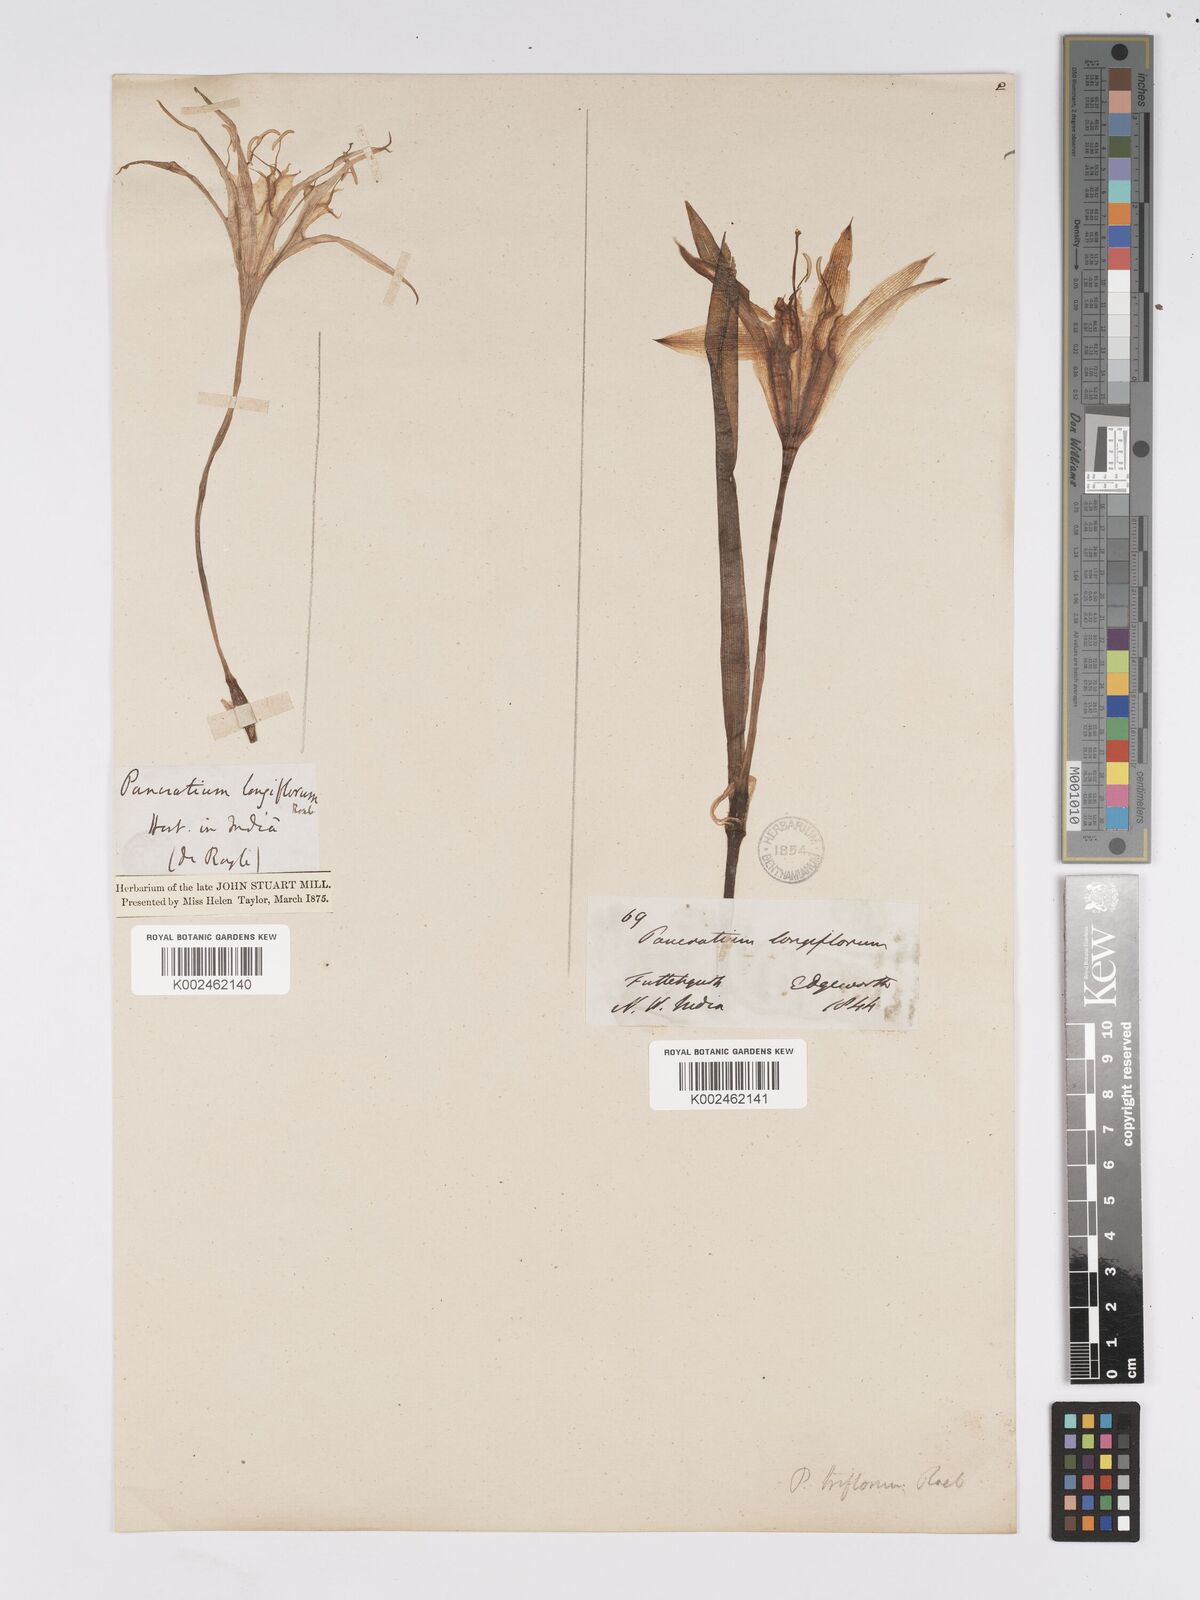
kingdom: Plantae
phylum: Tracheophyta
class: Liliopsida
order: Asparagales
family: Amaryllidaceae
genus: Pancratium
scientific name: Pancratium longiflorum
